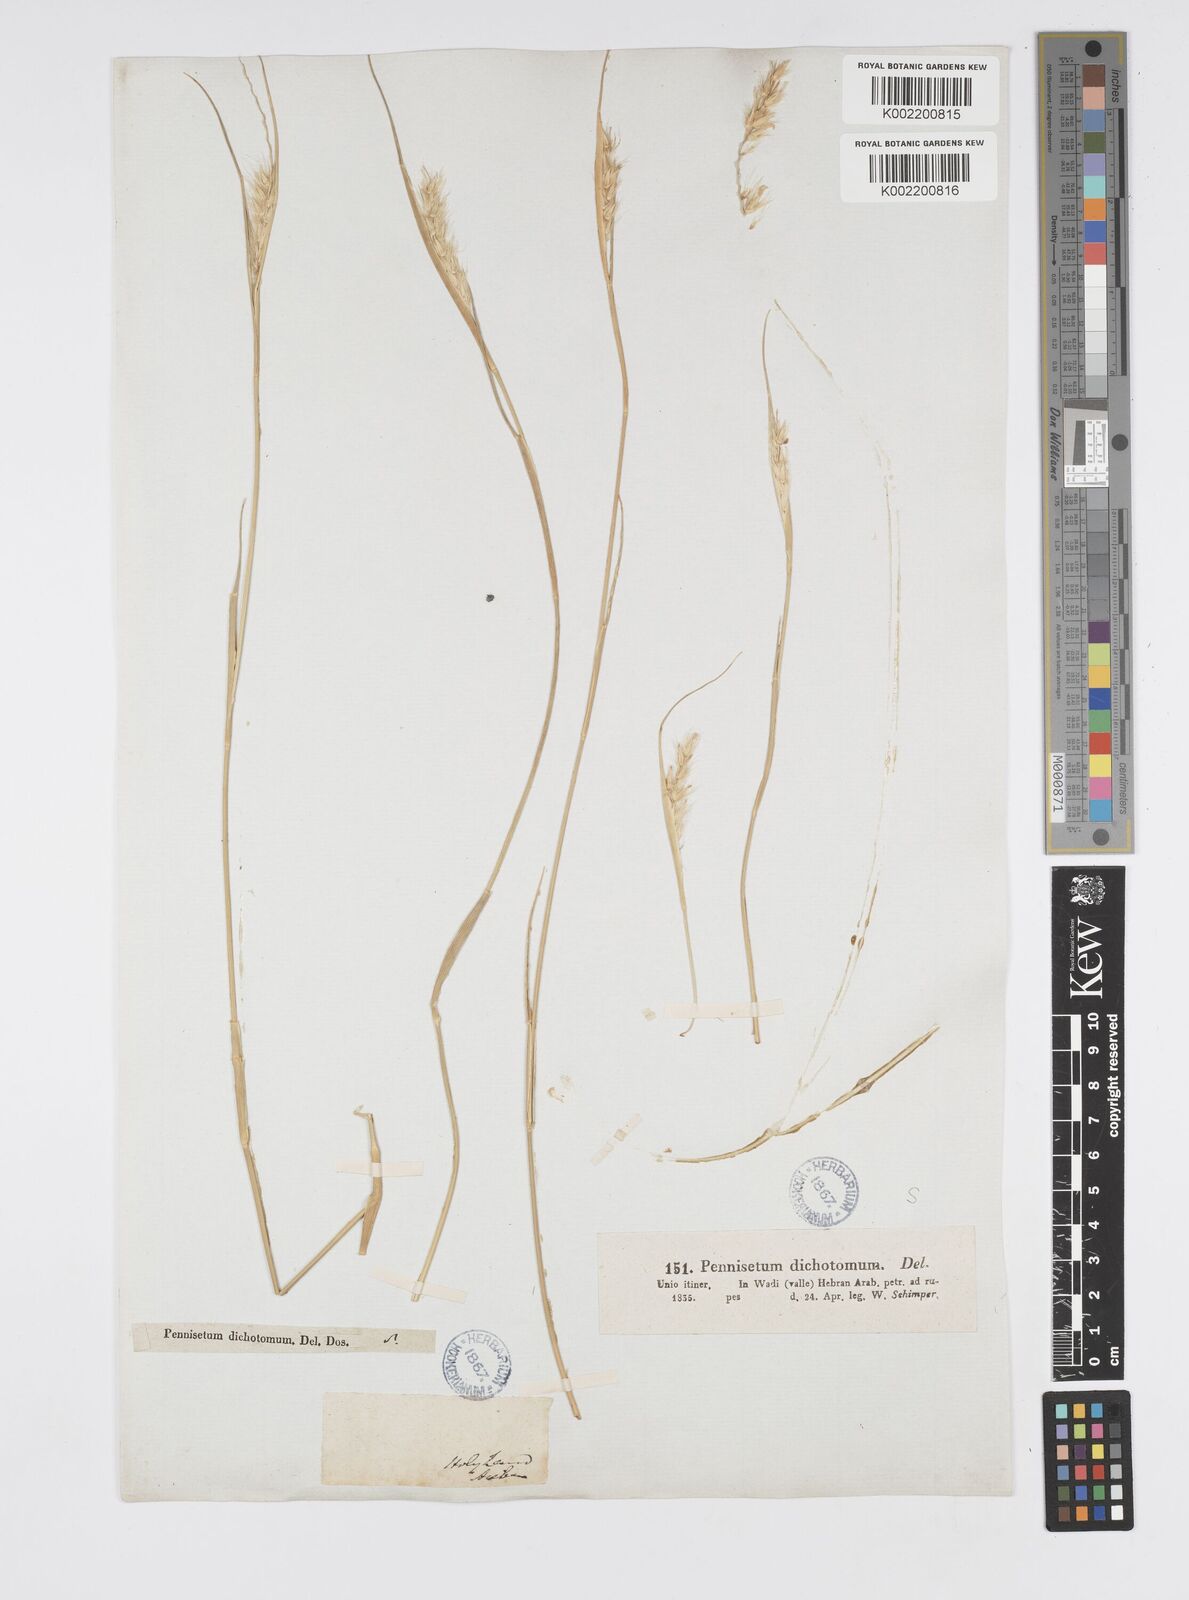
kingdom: Plantae
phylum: Tracheophyta
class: Liliopsida
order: Poales
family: Poaceae
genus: Cenchrus
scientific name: Cenchrus divisus
